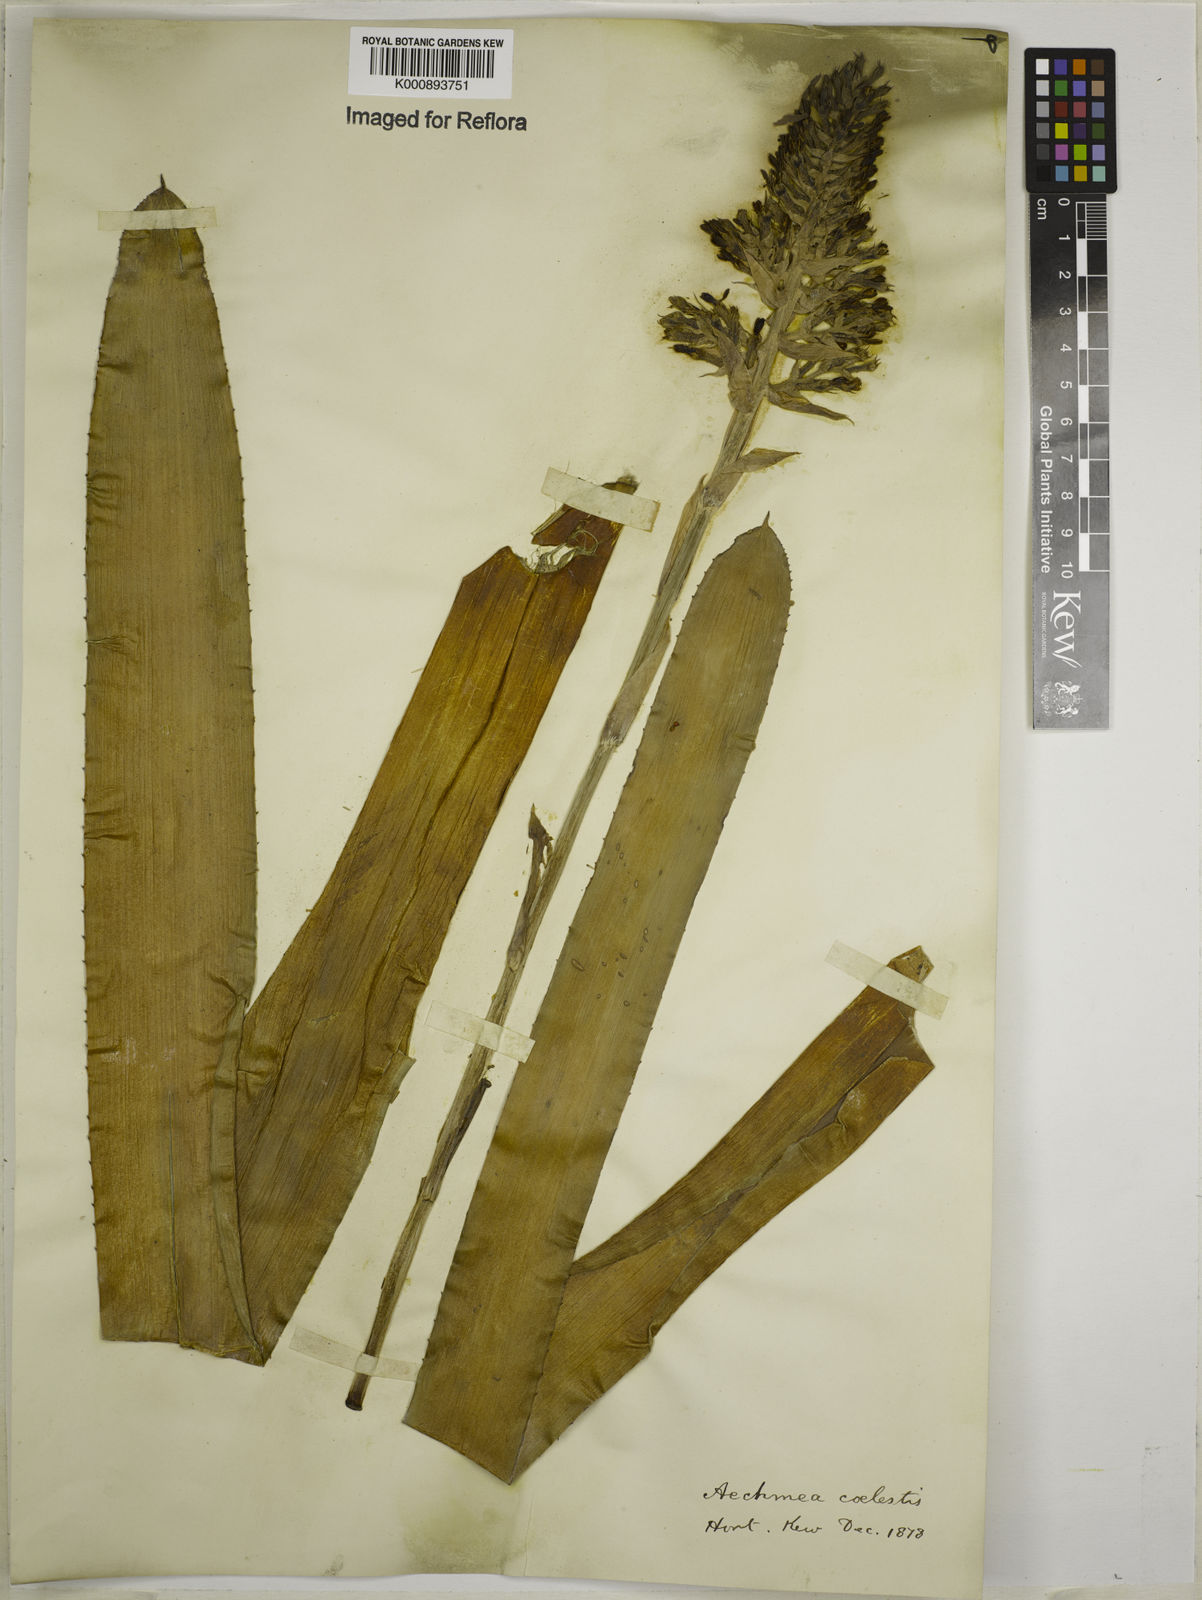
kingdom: Plantae
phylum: Tracheophyta
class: Liliopsida
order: Poales
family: Bromeliaceae
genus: Aechmea
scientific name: Aechmea coelestis
